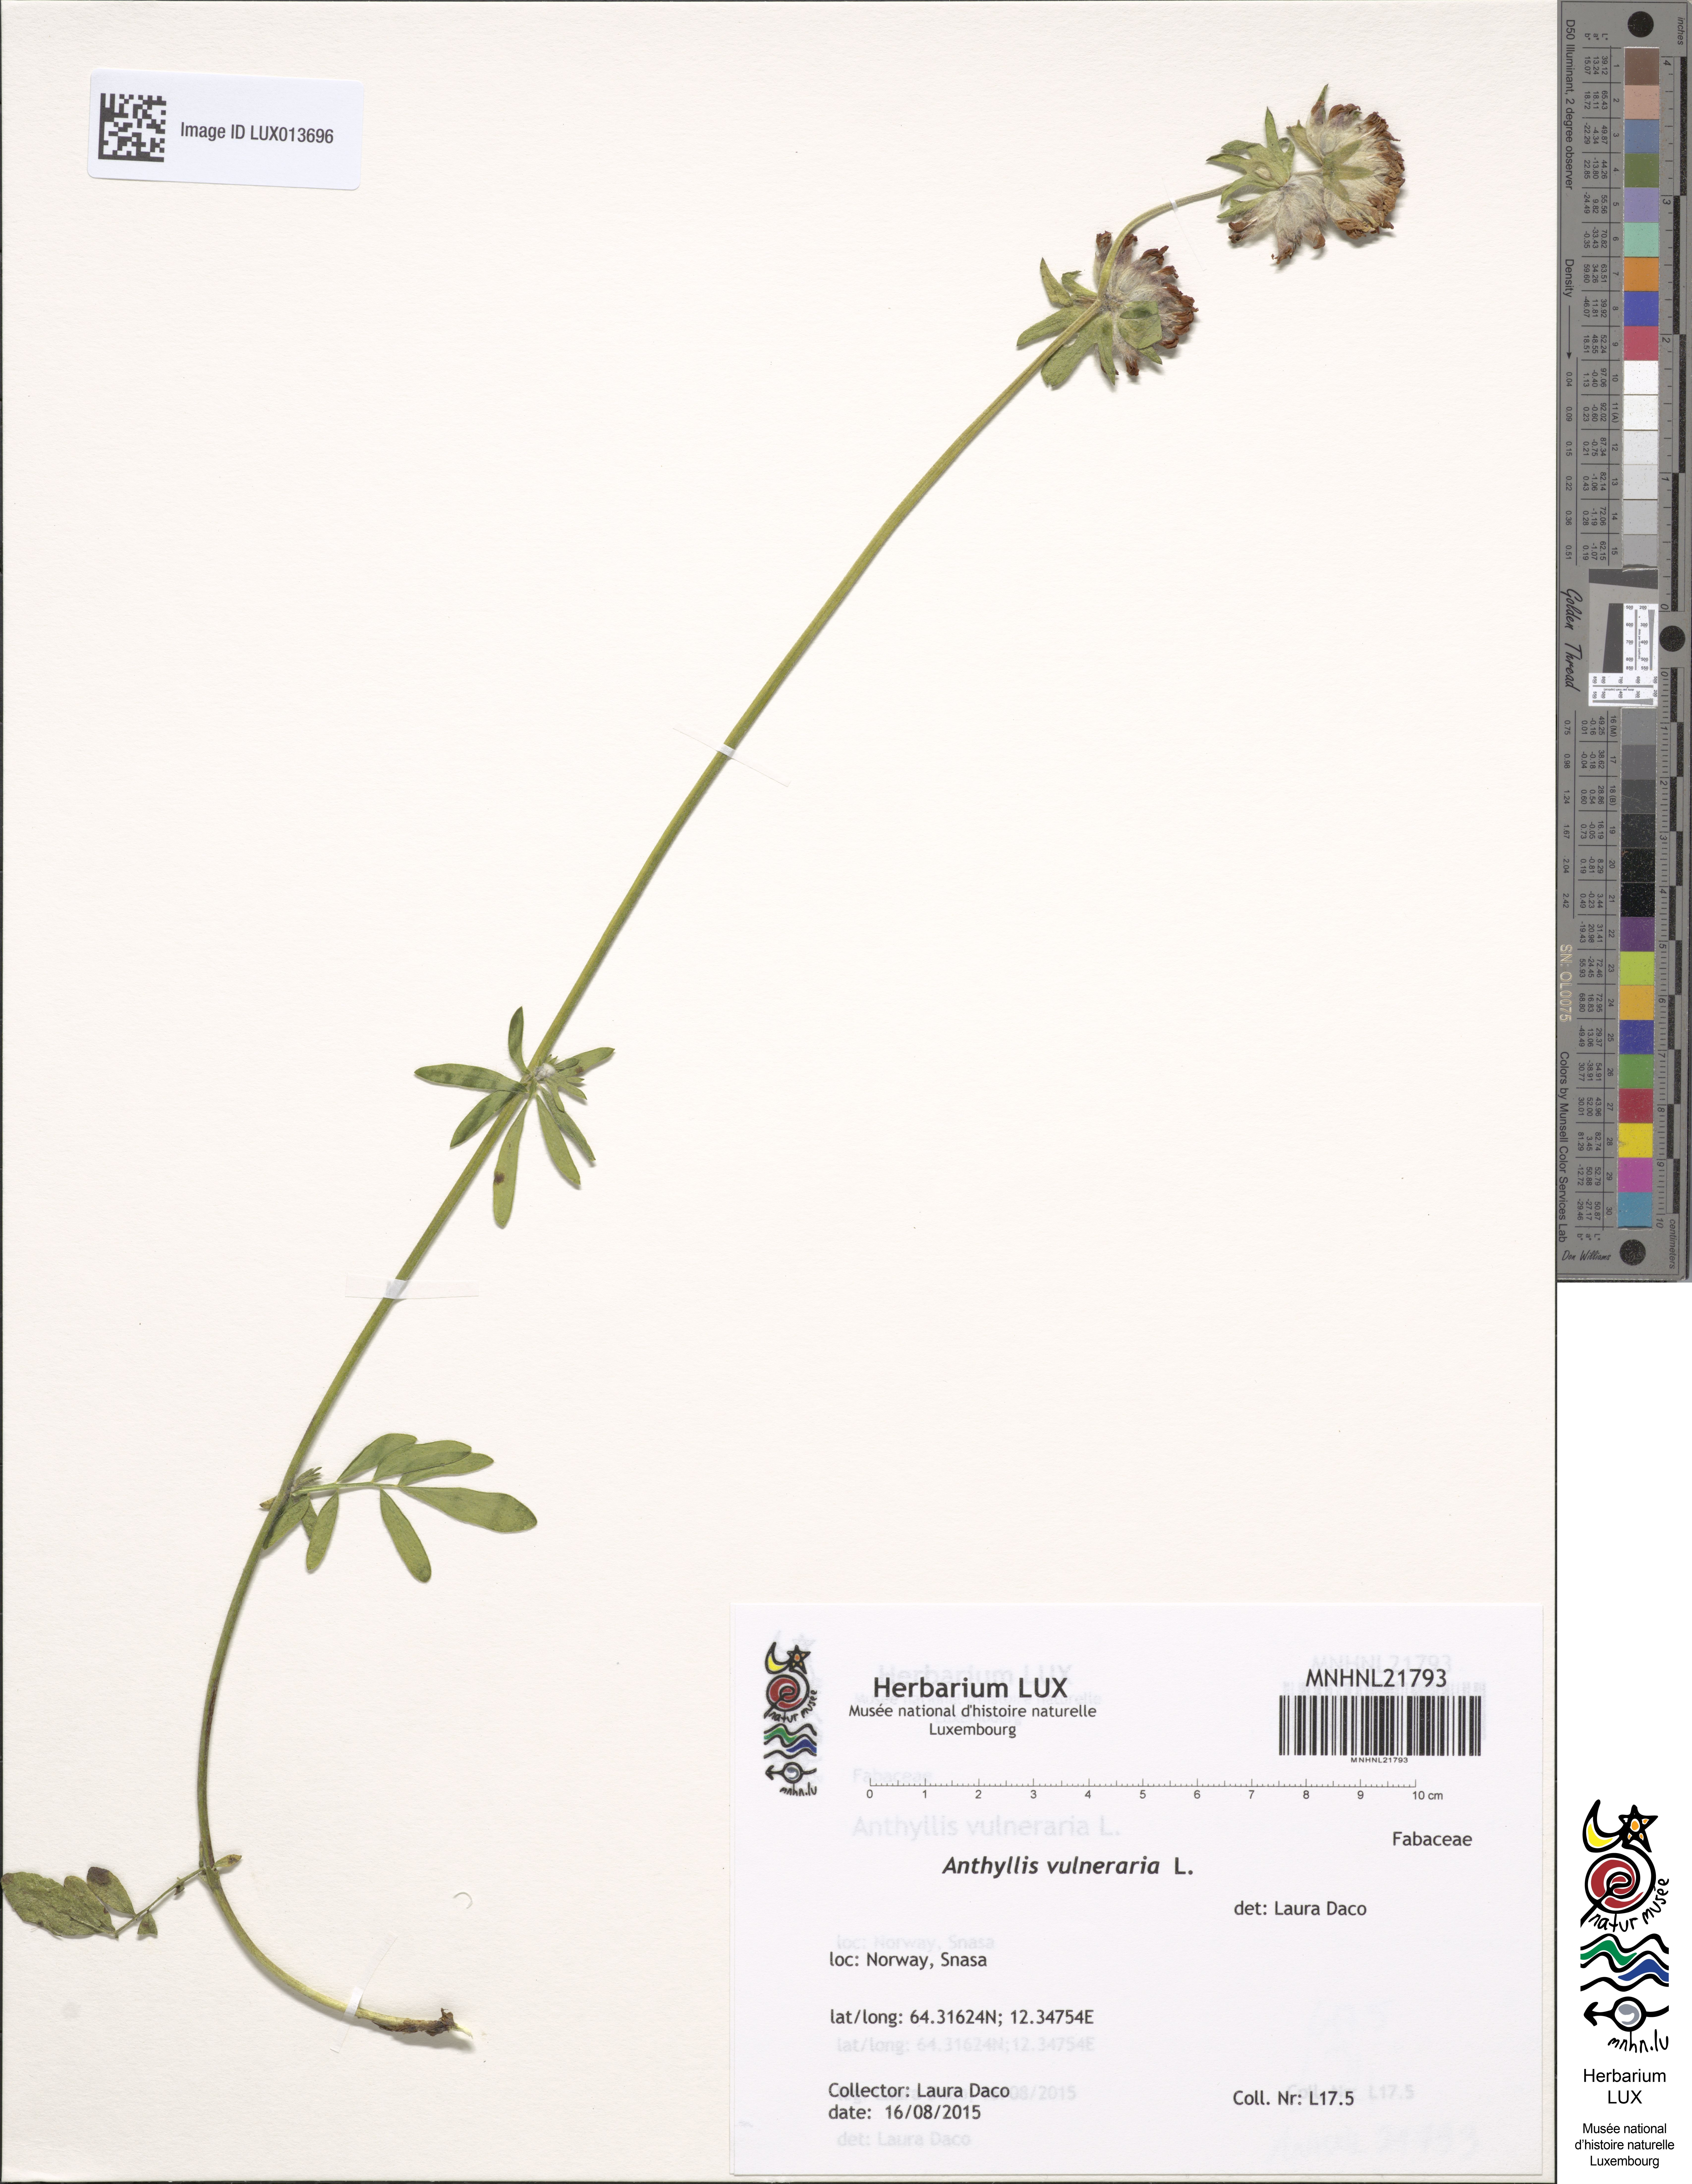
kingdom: Plantae
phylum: Tracheophyta
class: Magnoliopsida
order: Fabales
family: Fabaceae
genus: Anthyllis
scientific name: Anthyllis vulneraria
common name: Kidney vetch
